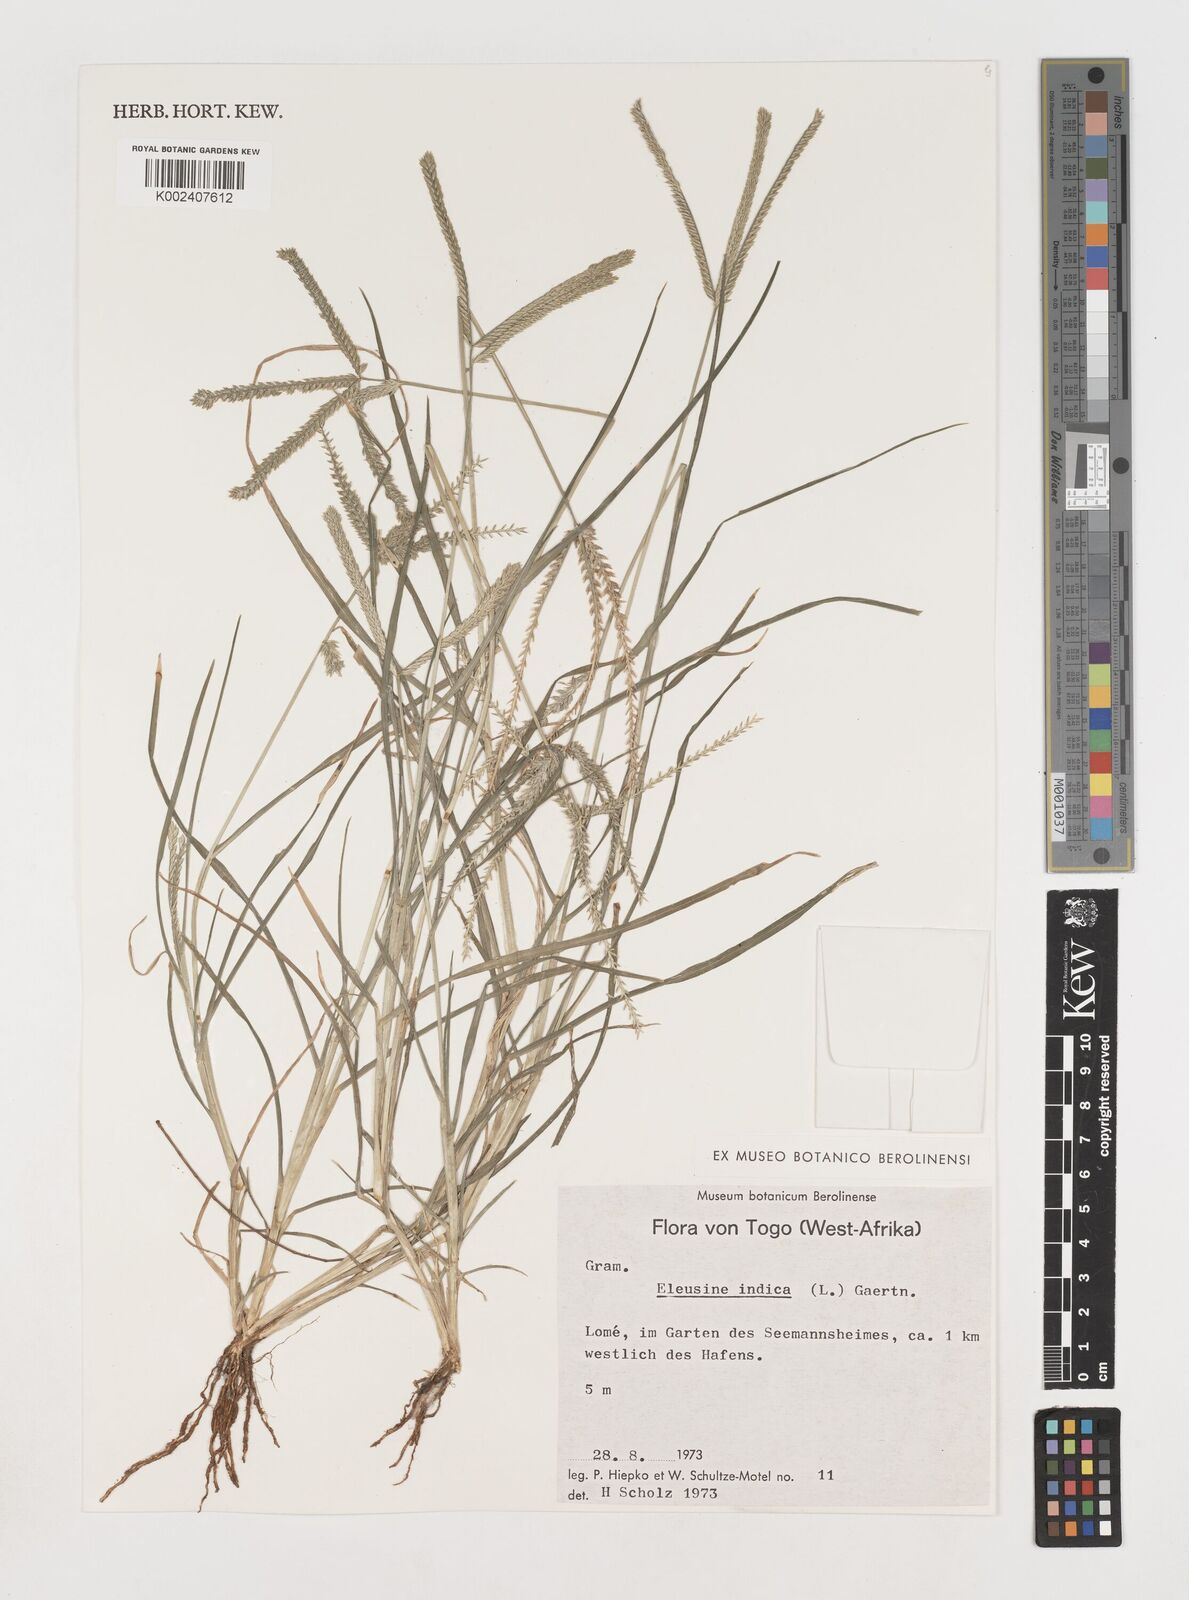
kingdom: Plantae
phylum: Tracheophyta
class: Liliopsida
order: Poales
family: Poaceae
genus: Eleusine
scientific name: Eleusine indica
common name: Yard-grass
